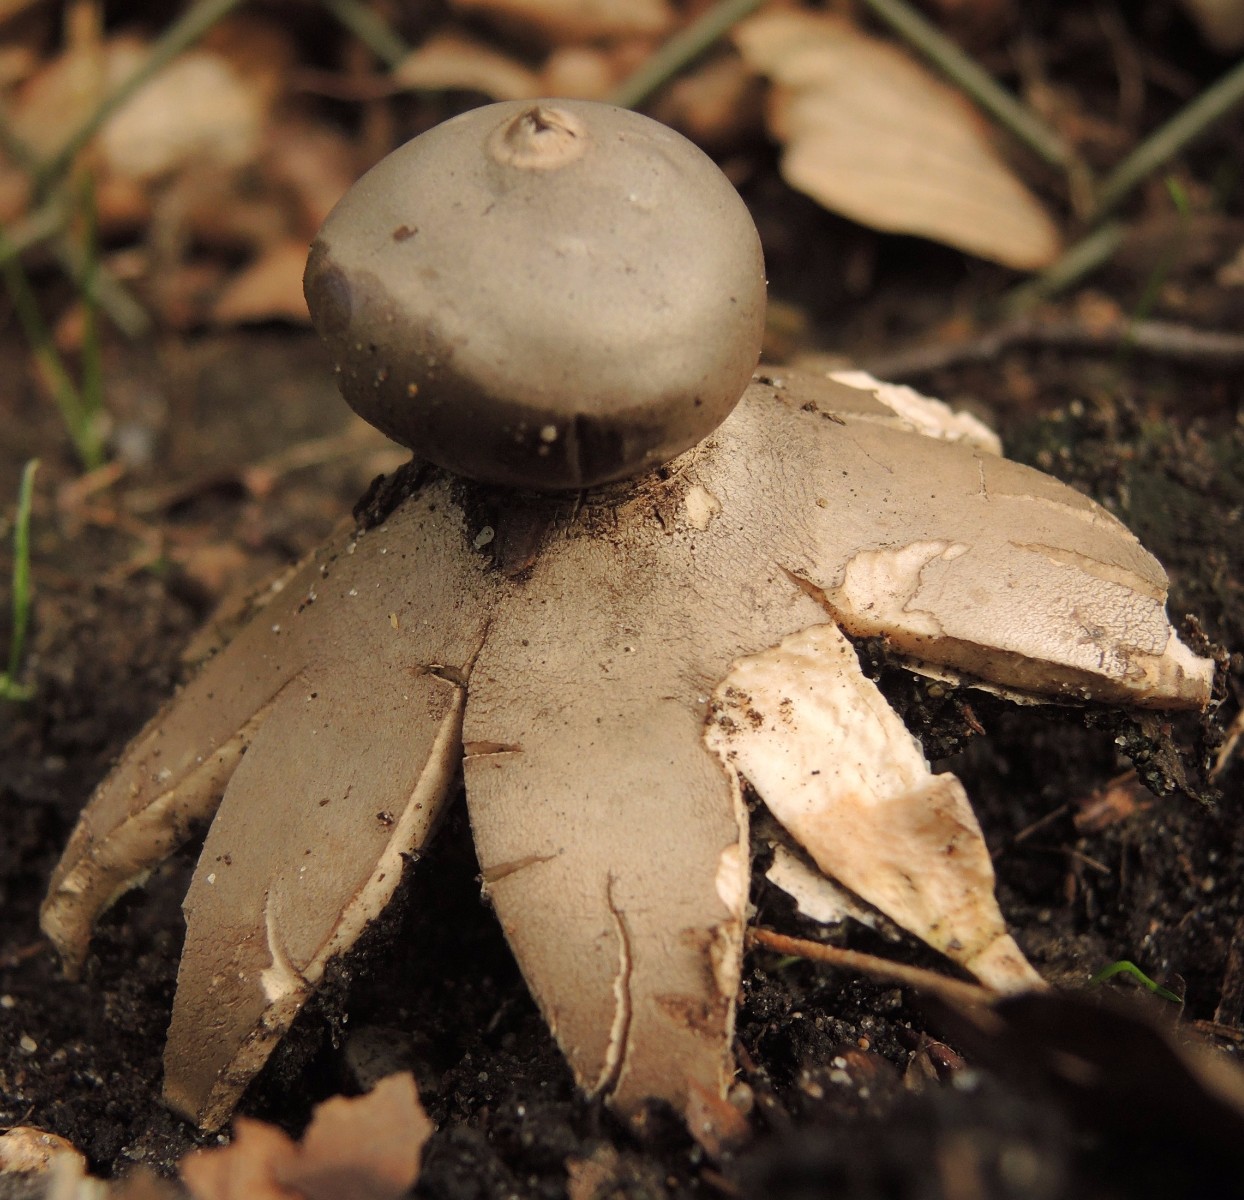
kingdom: Fungi
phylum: Basidiomycota
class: Agaricomycetes
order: Geastrales
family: Geastraceae
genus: Geastrum
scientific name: Geastrum
